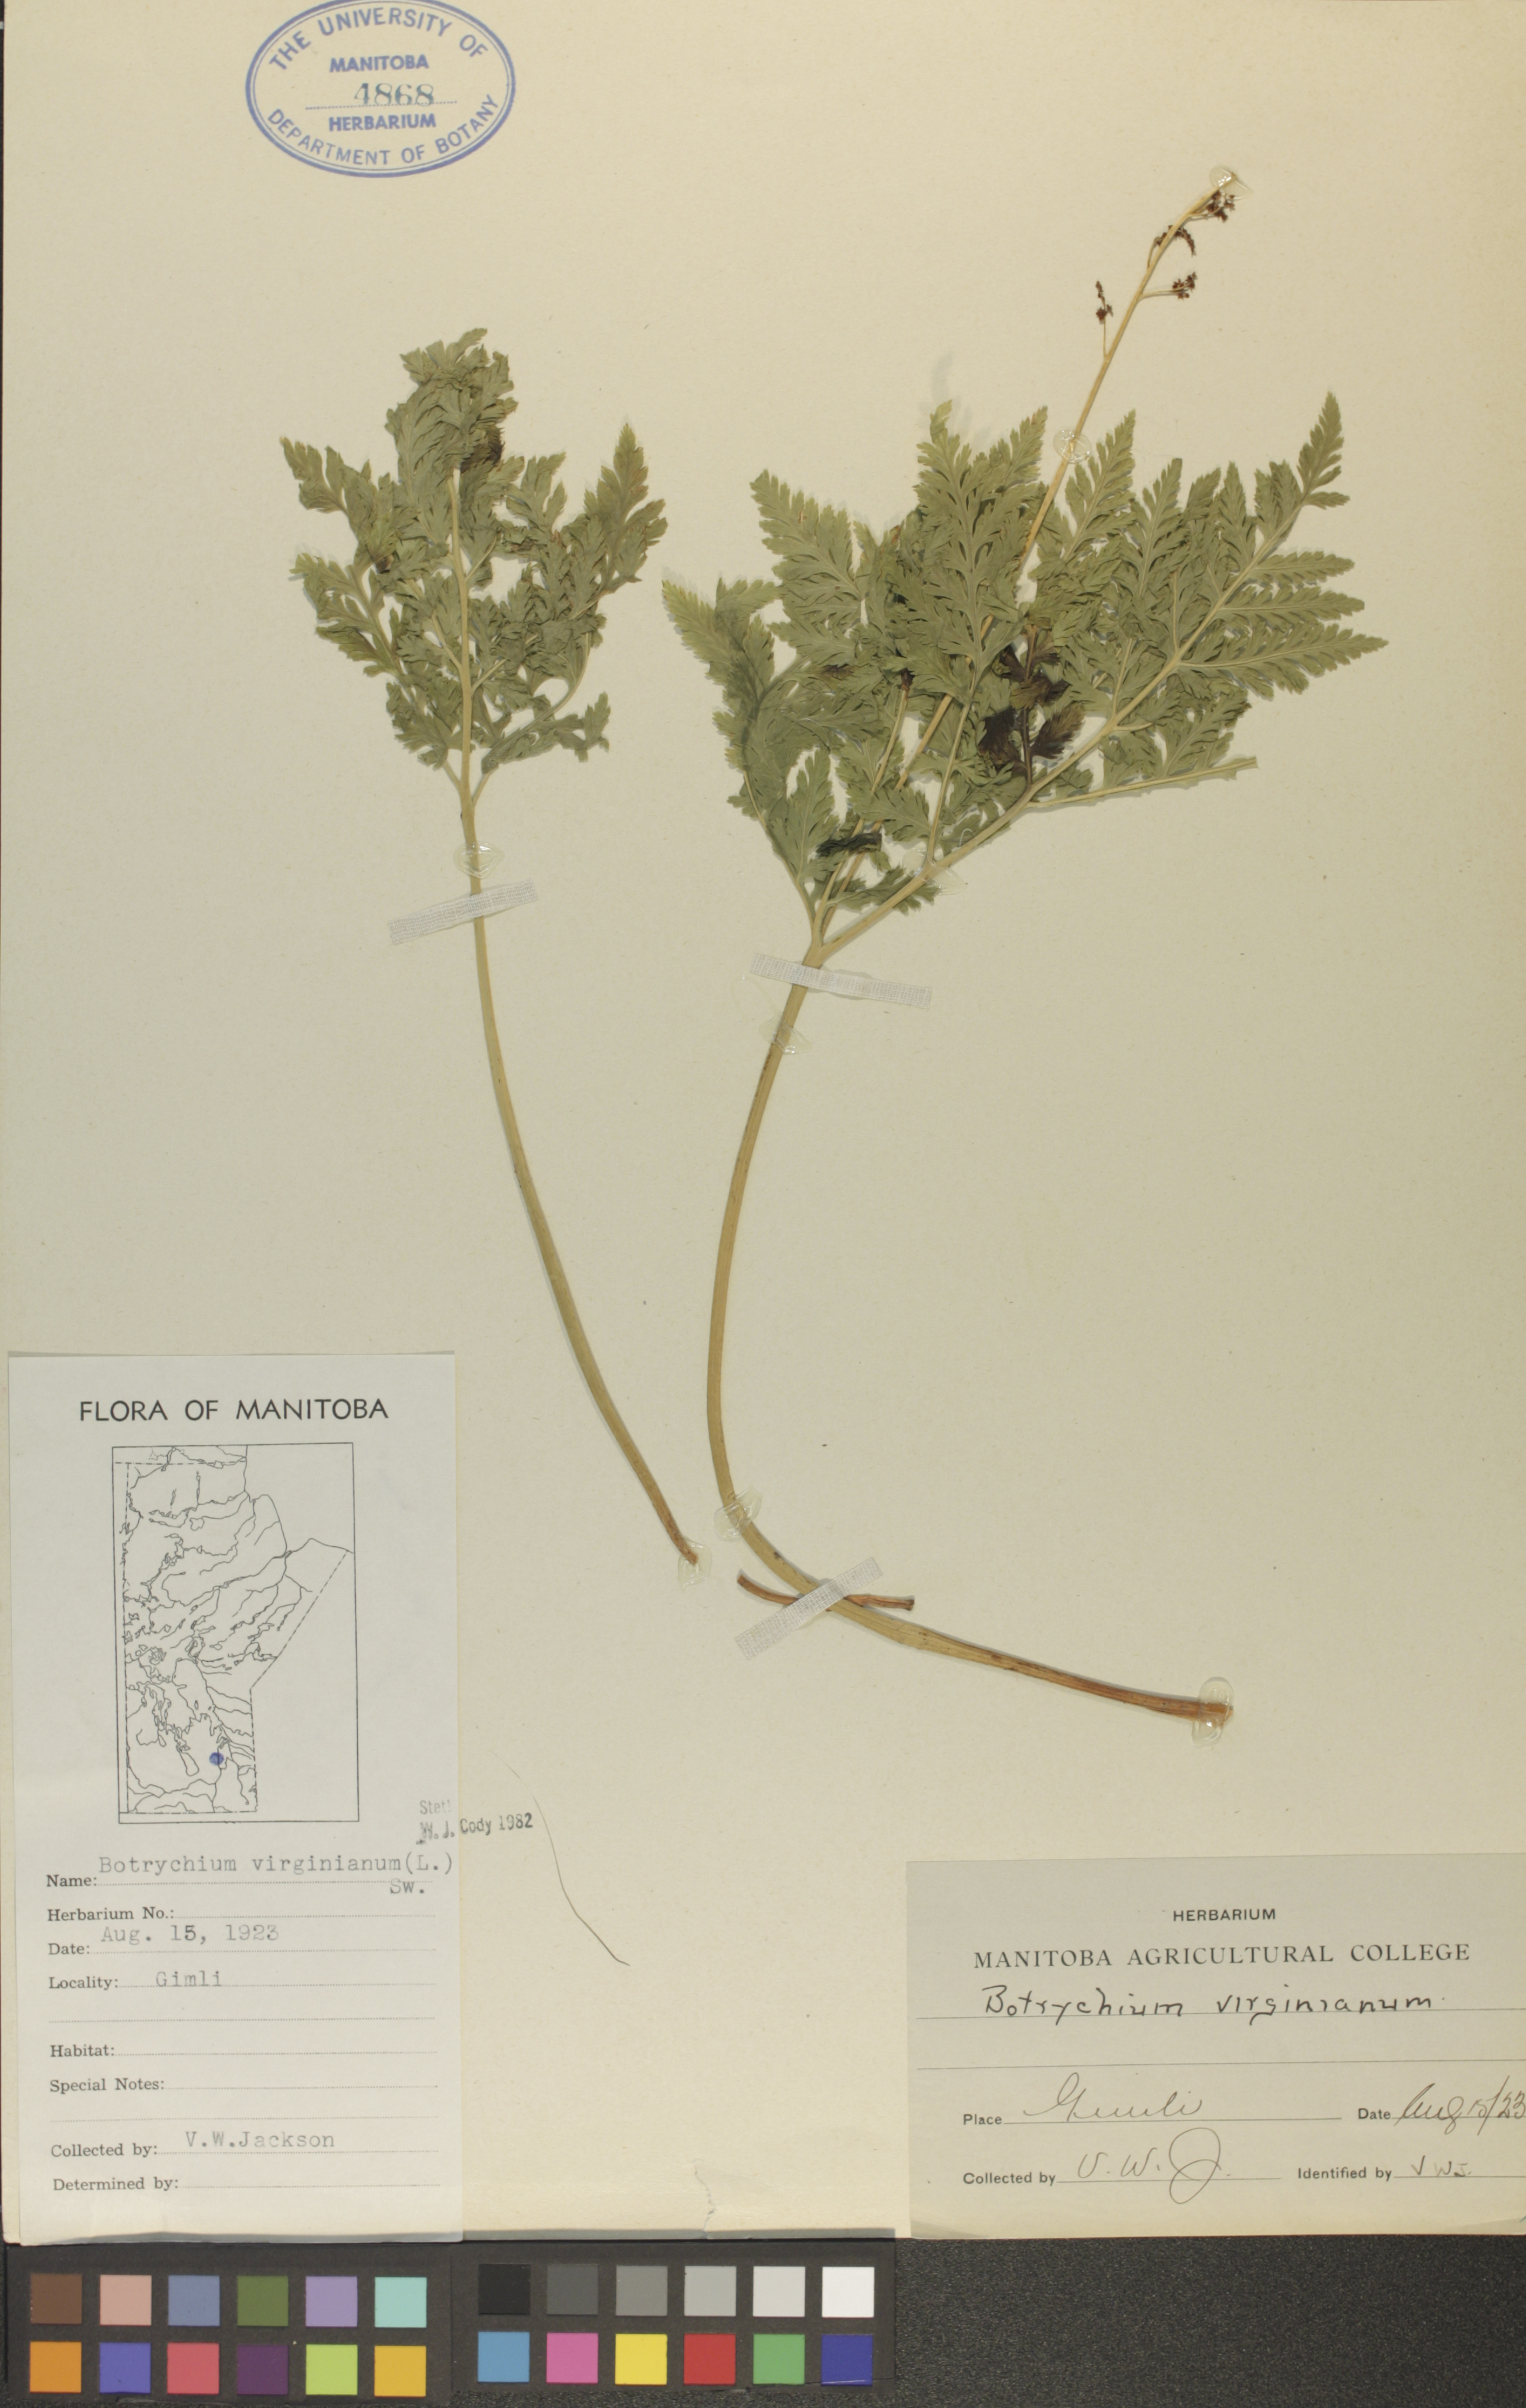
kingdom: Plantae
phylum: Tracheophyta
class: Polypodiopsida
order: Ophioglossales
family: Ophioglossaceae
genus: Botrypus
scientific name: Botrypus virginianus
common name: Common grapefern
